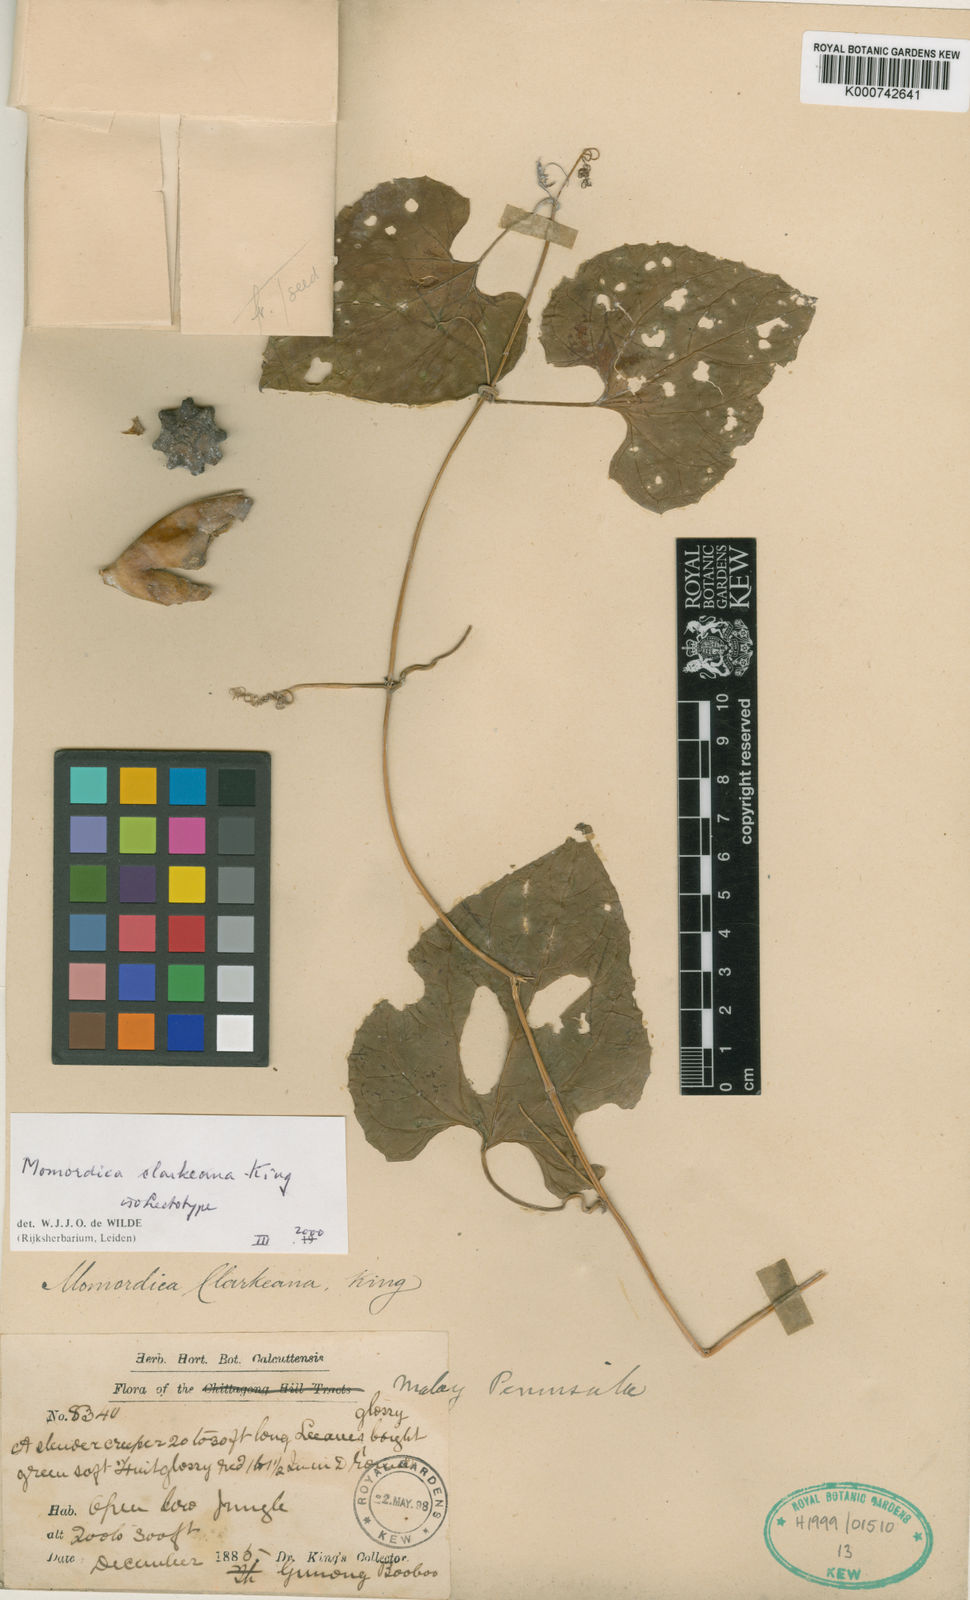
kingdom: Plantae
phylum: Tracheophyta
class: Magnoliopsida
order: Cucurbitales
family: Cucurbitaceae
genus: Momordica
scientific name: Momordica clarkeana
